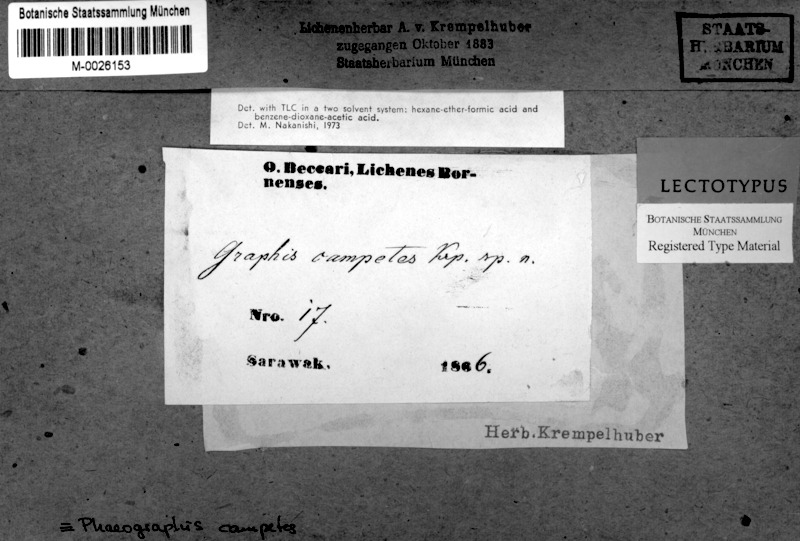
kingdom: Fungi
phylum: Ascomycota
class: Lecanoromycetes
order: Ostropales
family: Graphidaceae
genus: Phaeographis
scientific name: Phaeographis
